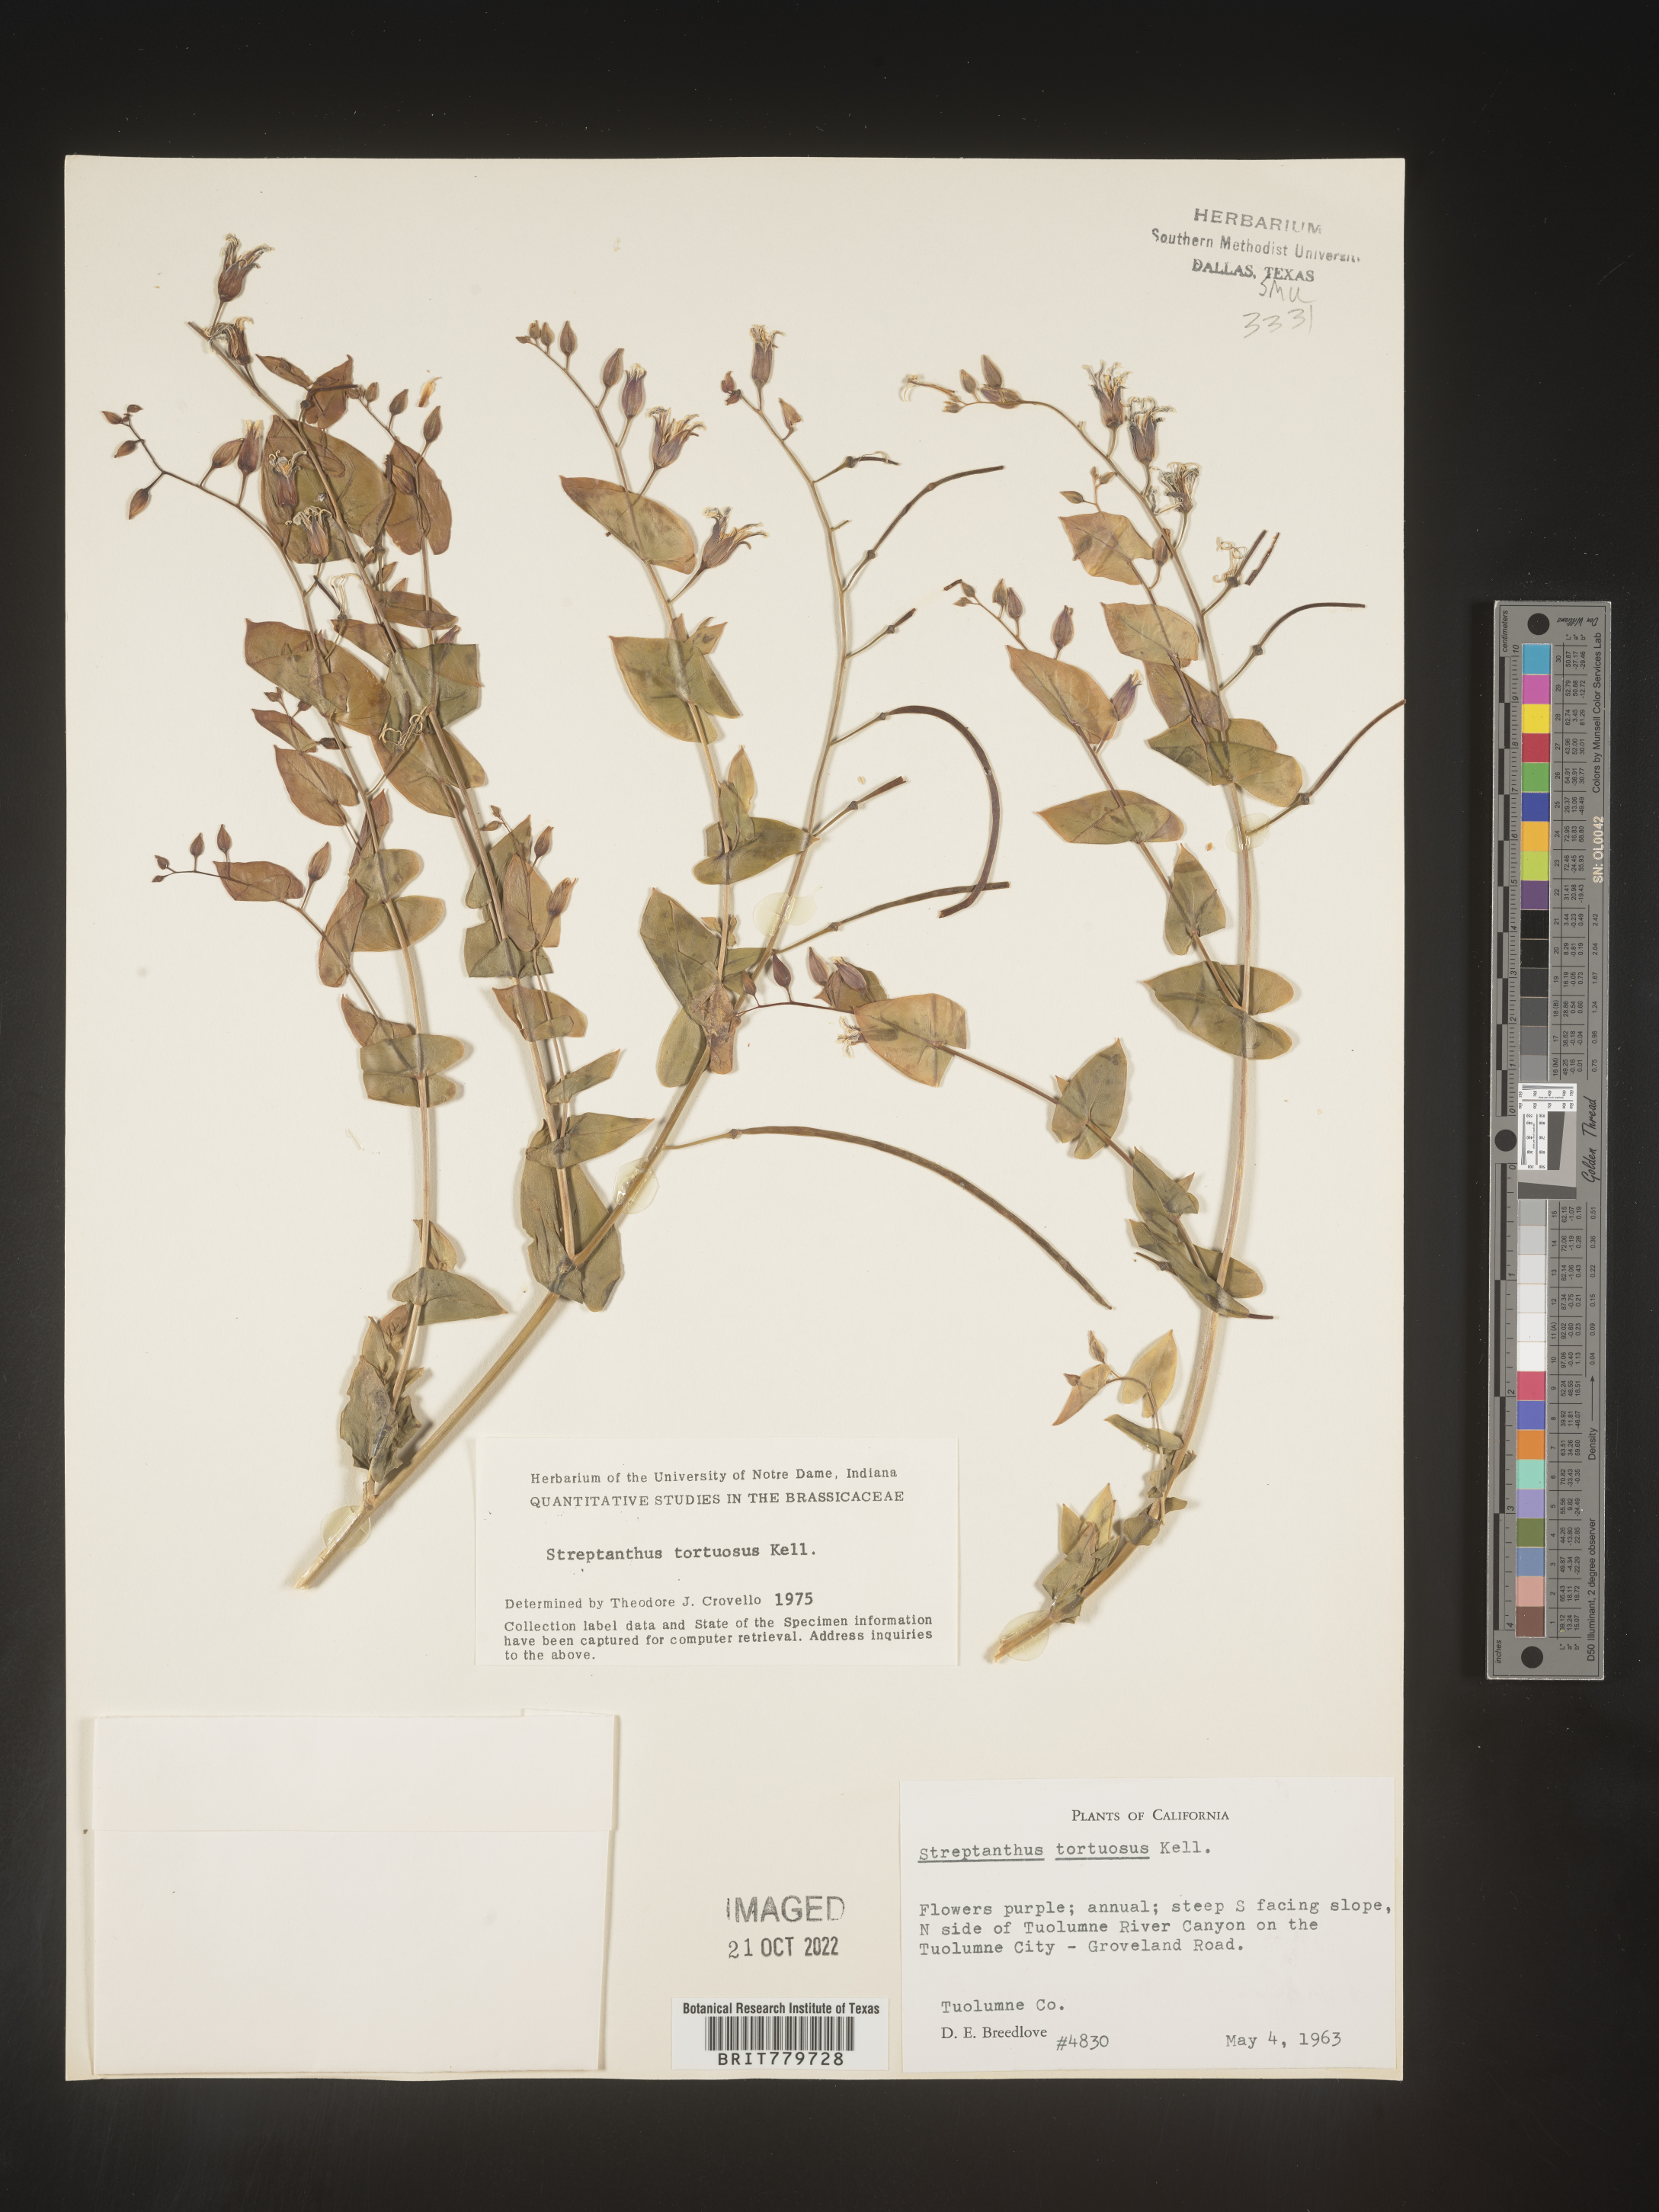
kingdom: Plantae
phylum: Tracheophyta
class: Magnoliopsida
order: Brassicales
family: Brassicaceae
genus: Streptanthus
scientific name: Streptanthus
